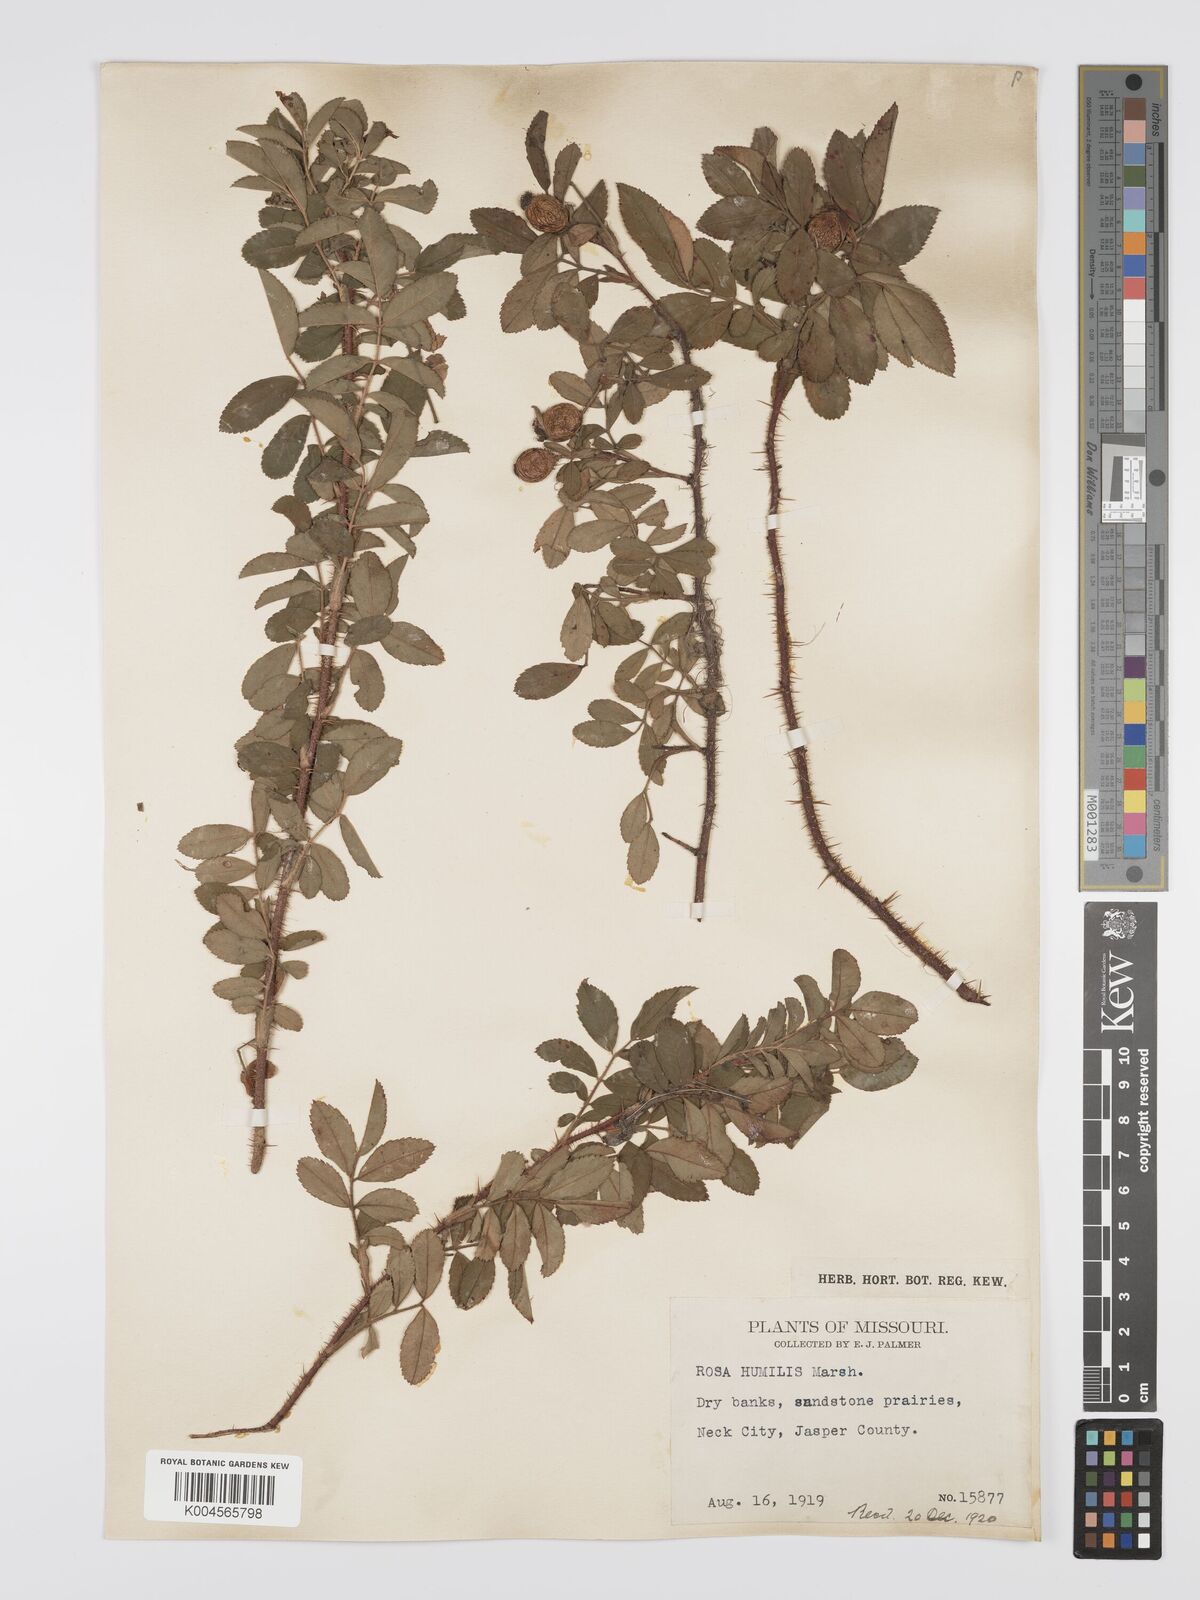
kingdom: Plantae
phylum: Tracheophyta
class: Magnoliopsida
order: Rosales
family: Rosaceae
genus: Rosa
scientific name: Rosa carolina
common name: Pasture rose
